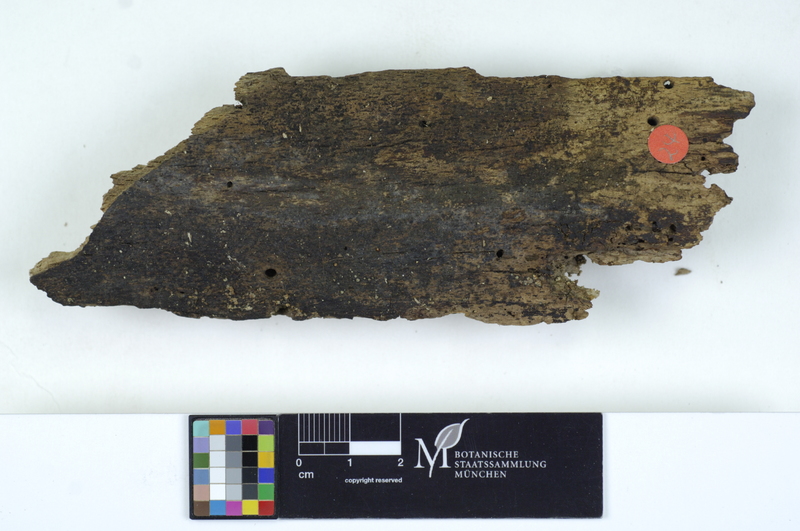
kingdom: Fungi
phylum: Basidiomycota
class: Agaricomycetes
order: Cantharellales
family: Tulasnellaceae
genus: Tulasnella
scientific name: Tulasnella eichleriana
